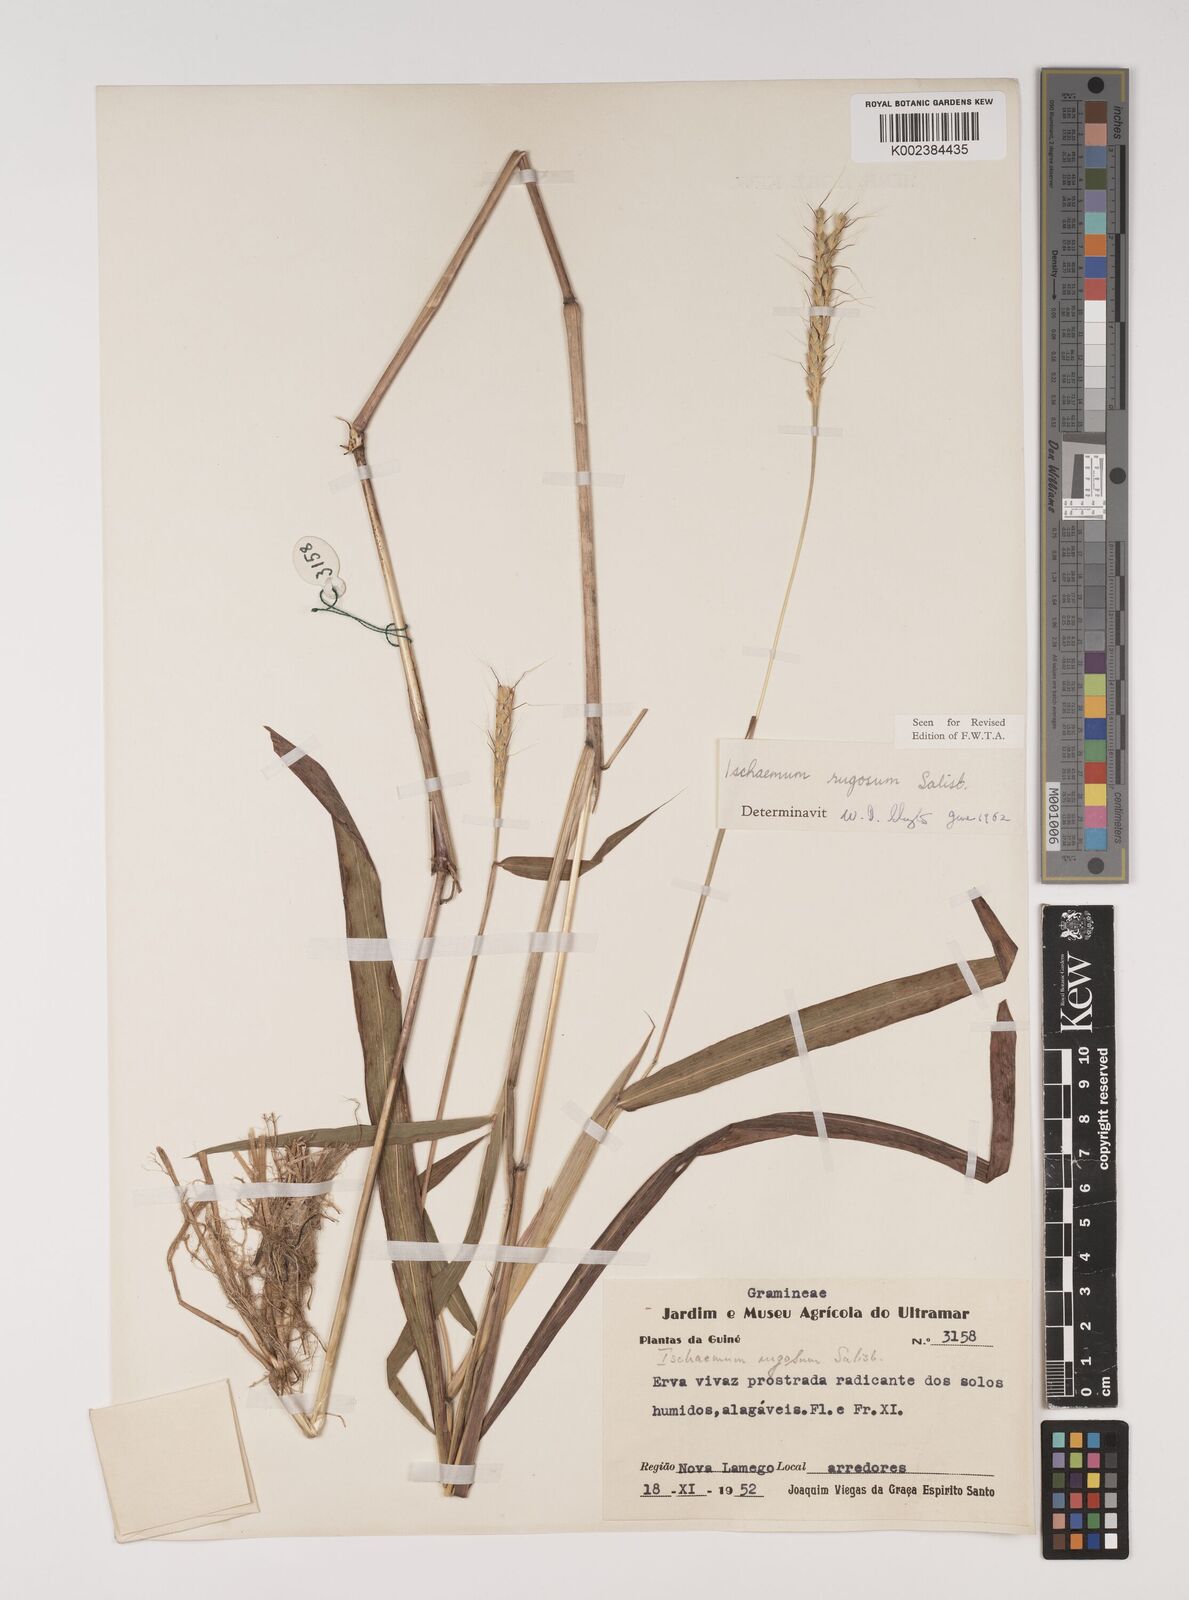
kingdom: Plantae
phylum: Tracheophyta
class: Liliopsida
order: Poales
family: Poaceae
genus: Ischaemum
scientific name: Ischaemum rugosum
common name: Saramatta grass
